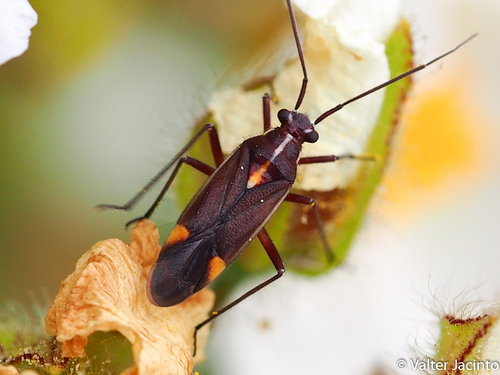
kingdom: Animalia
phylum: Arthropoda
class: Insecta
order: Hemiptera
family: Miridae
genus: Capsodes
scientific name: Capsodes flavomarginatus
